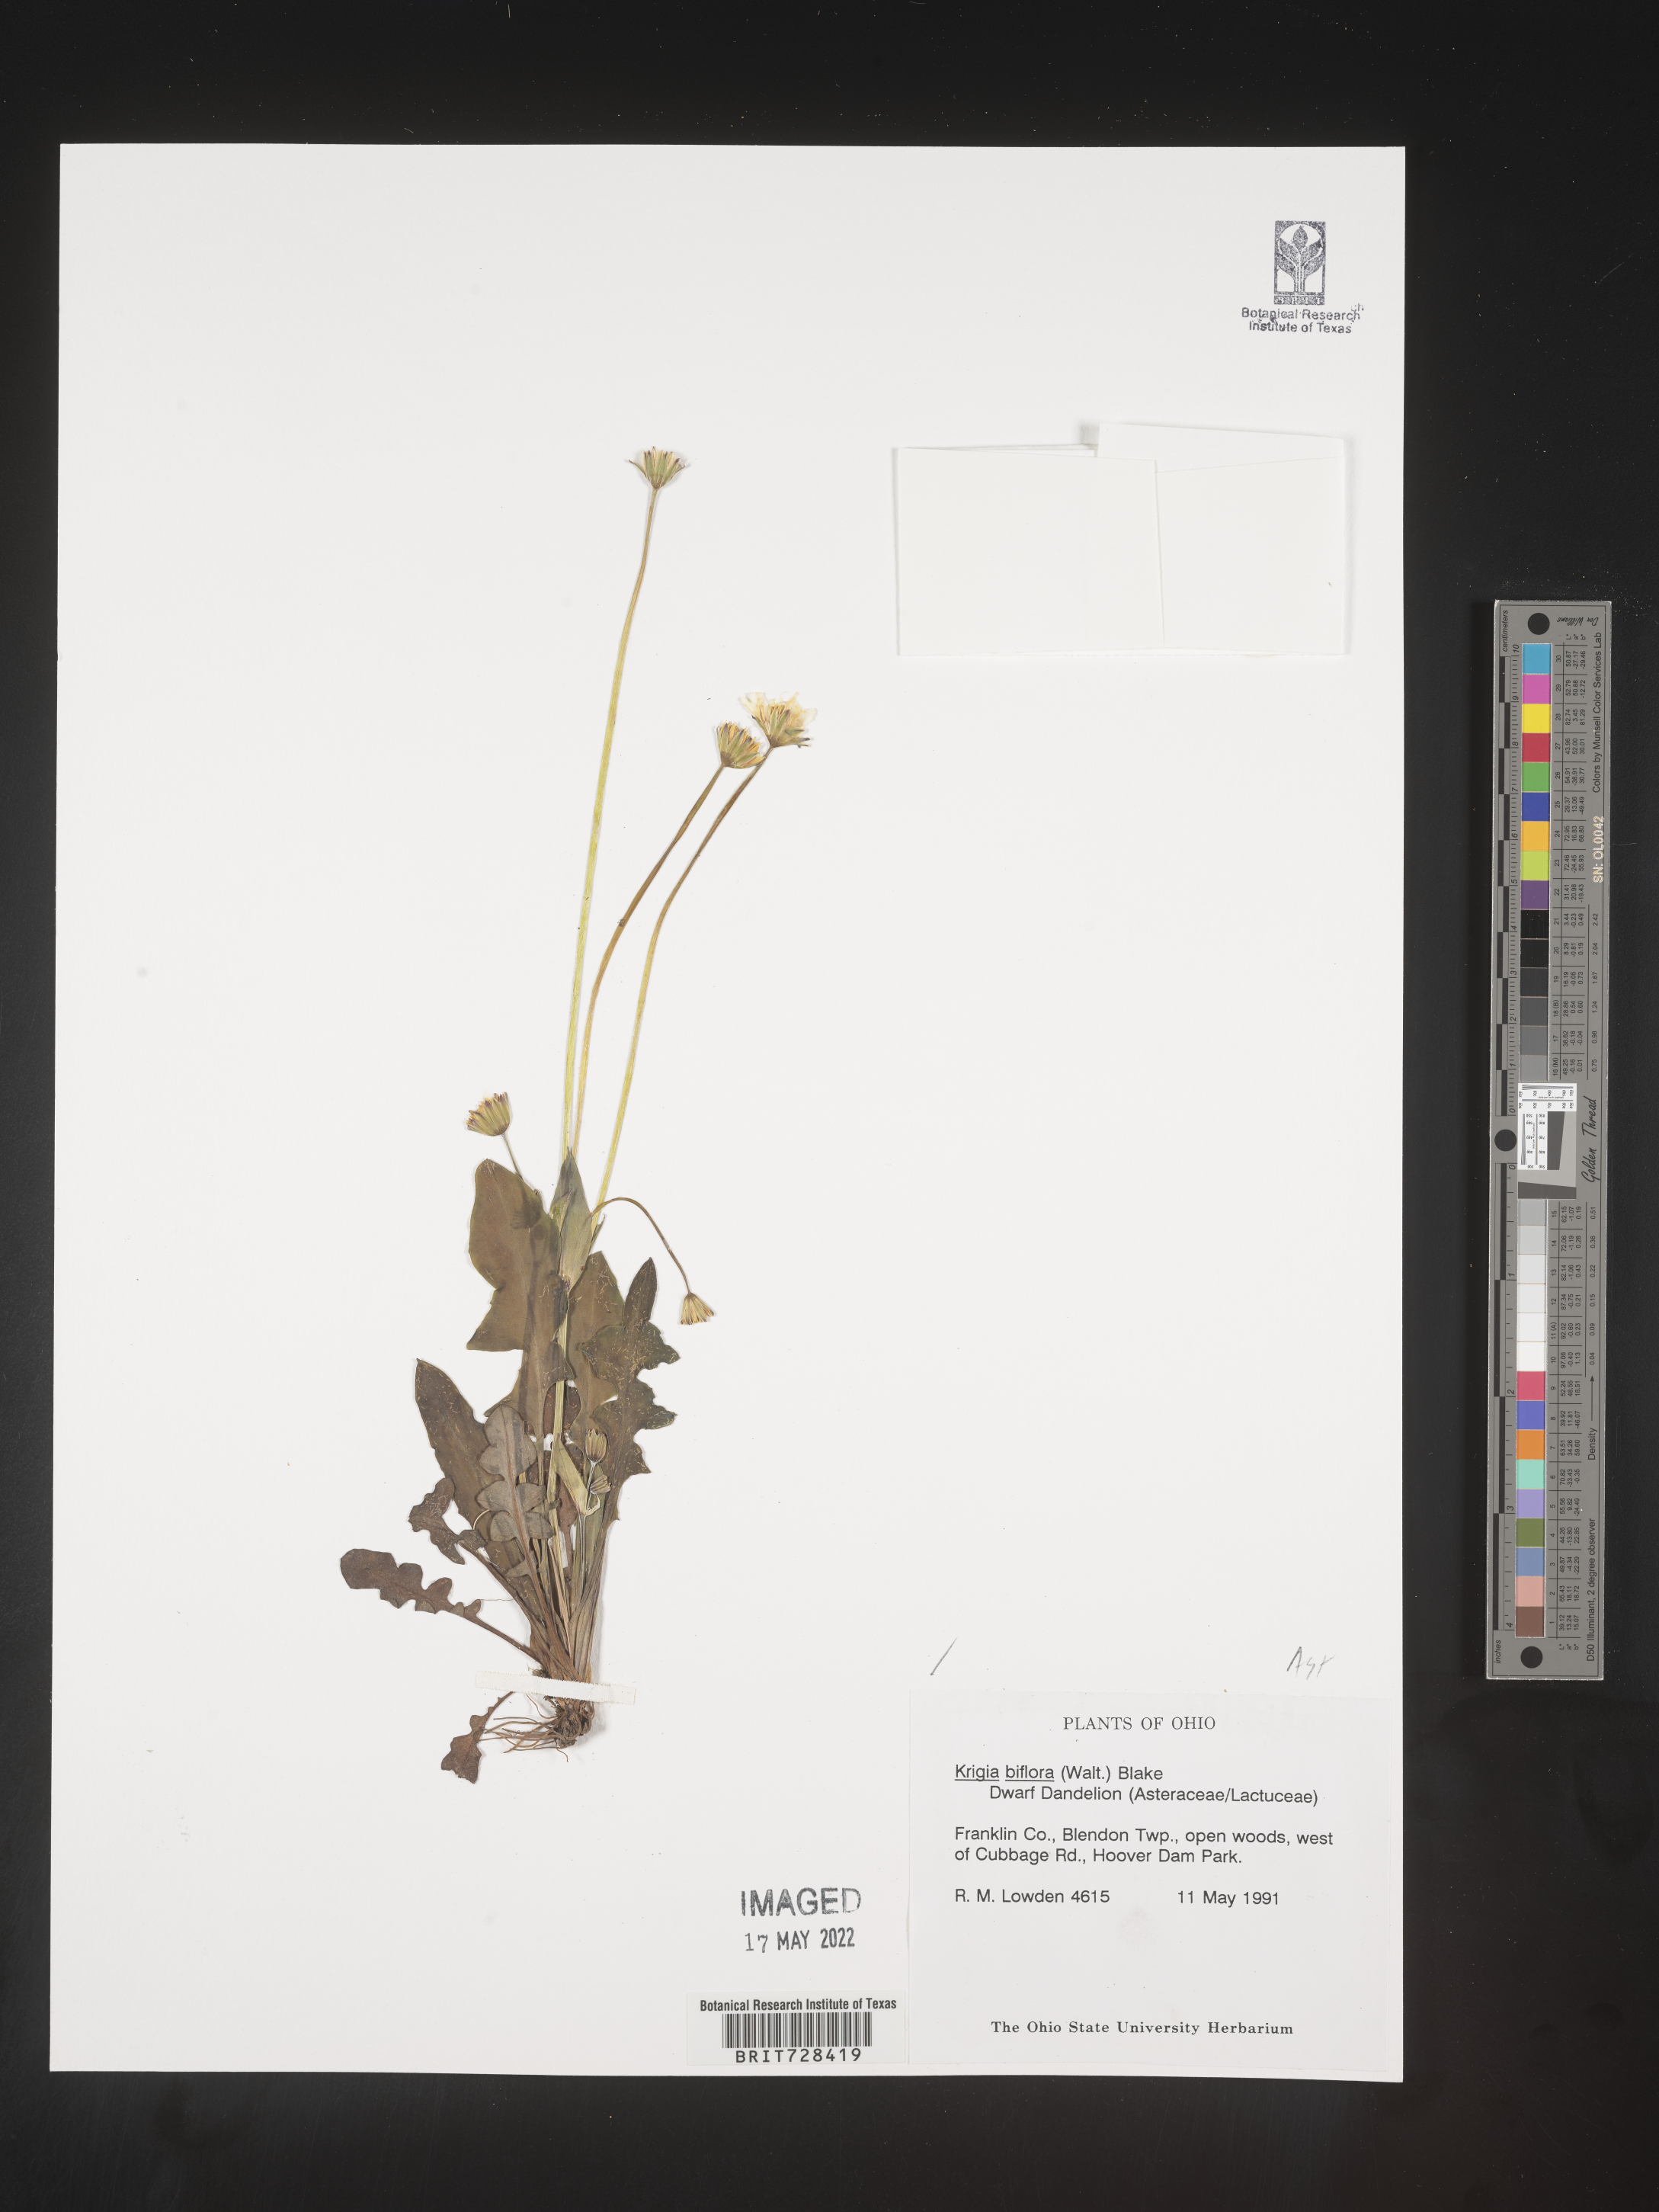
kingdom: Plantae
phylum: Tracheophyta
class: Magnoliopsida
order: Asterales
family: Asteraceae
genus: Krigia
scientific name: Krigia biflora
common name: Orange dwarf-dandelion
